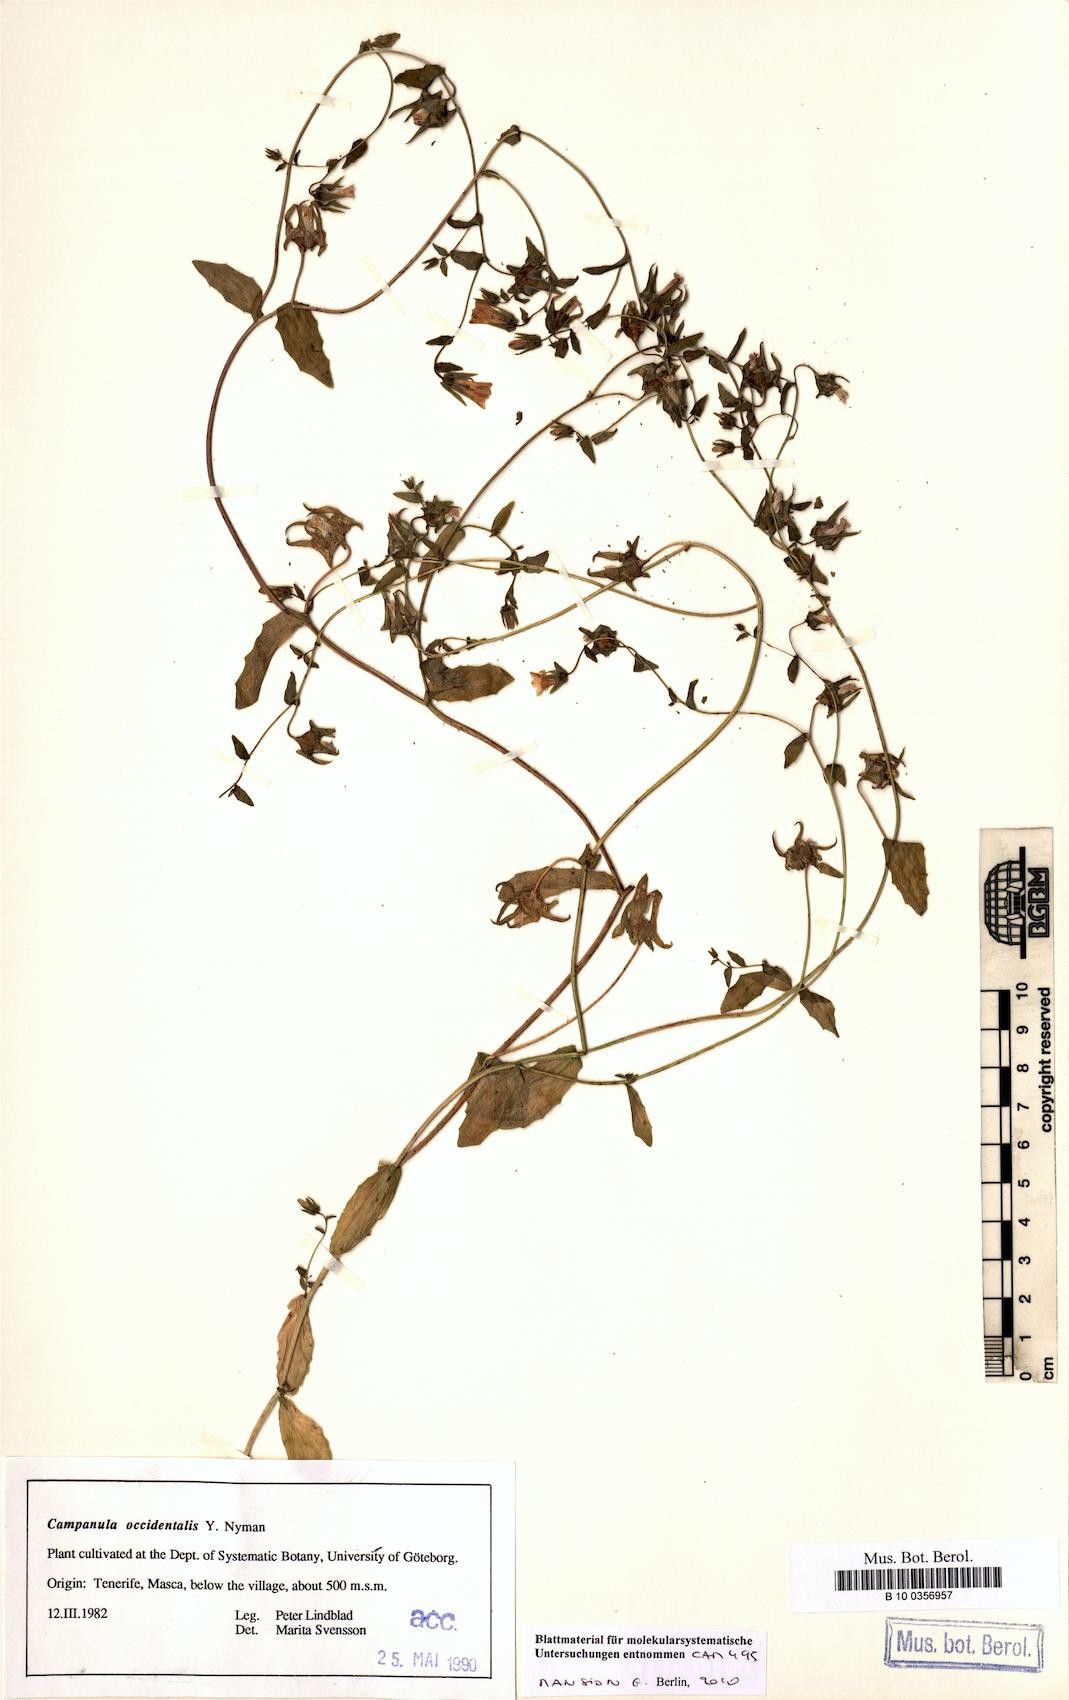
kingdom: Plantae
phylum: Tracheophyta
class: Magnoliopsida
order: Asterales
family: Campanulaceae
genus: Campanula
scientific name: Campanula occidentalis
